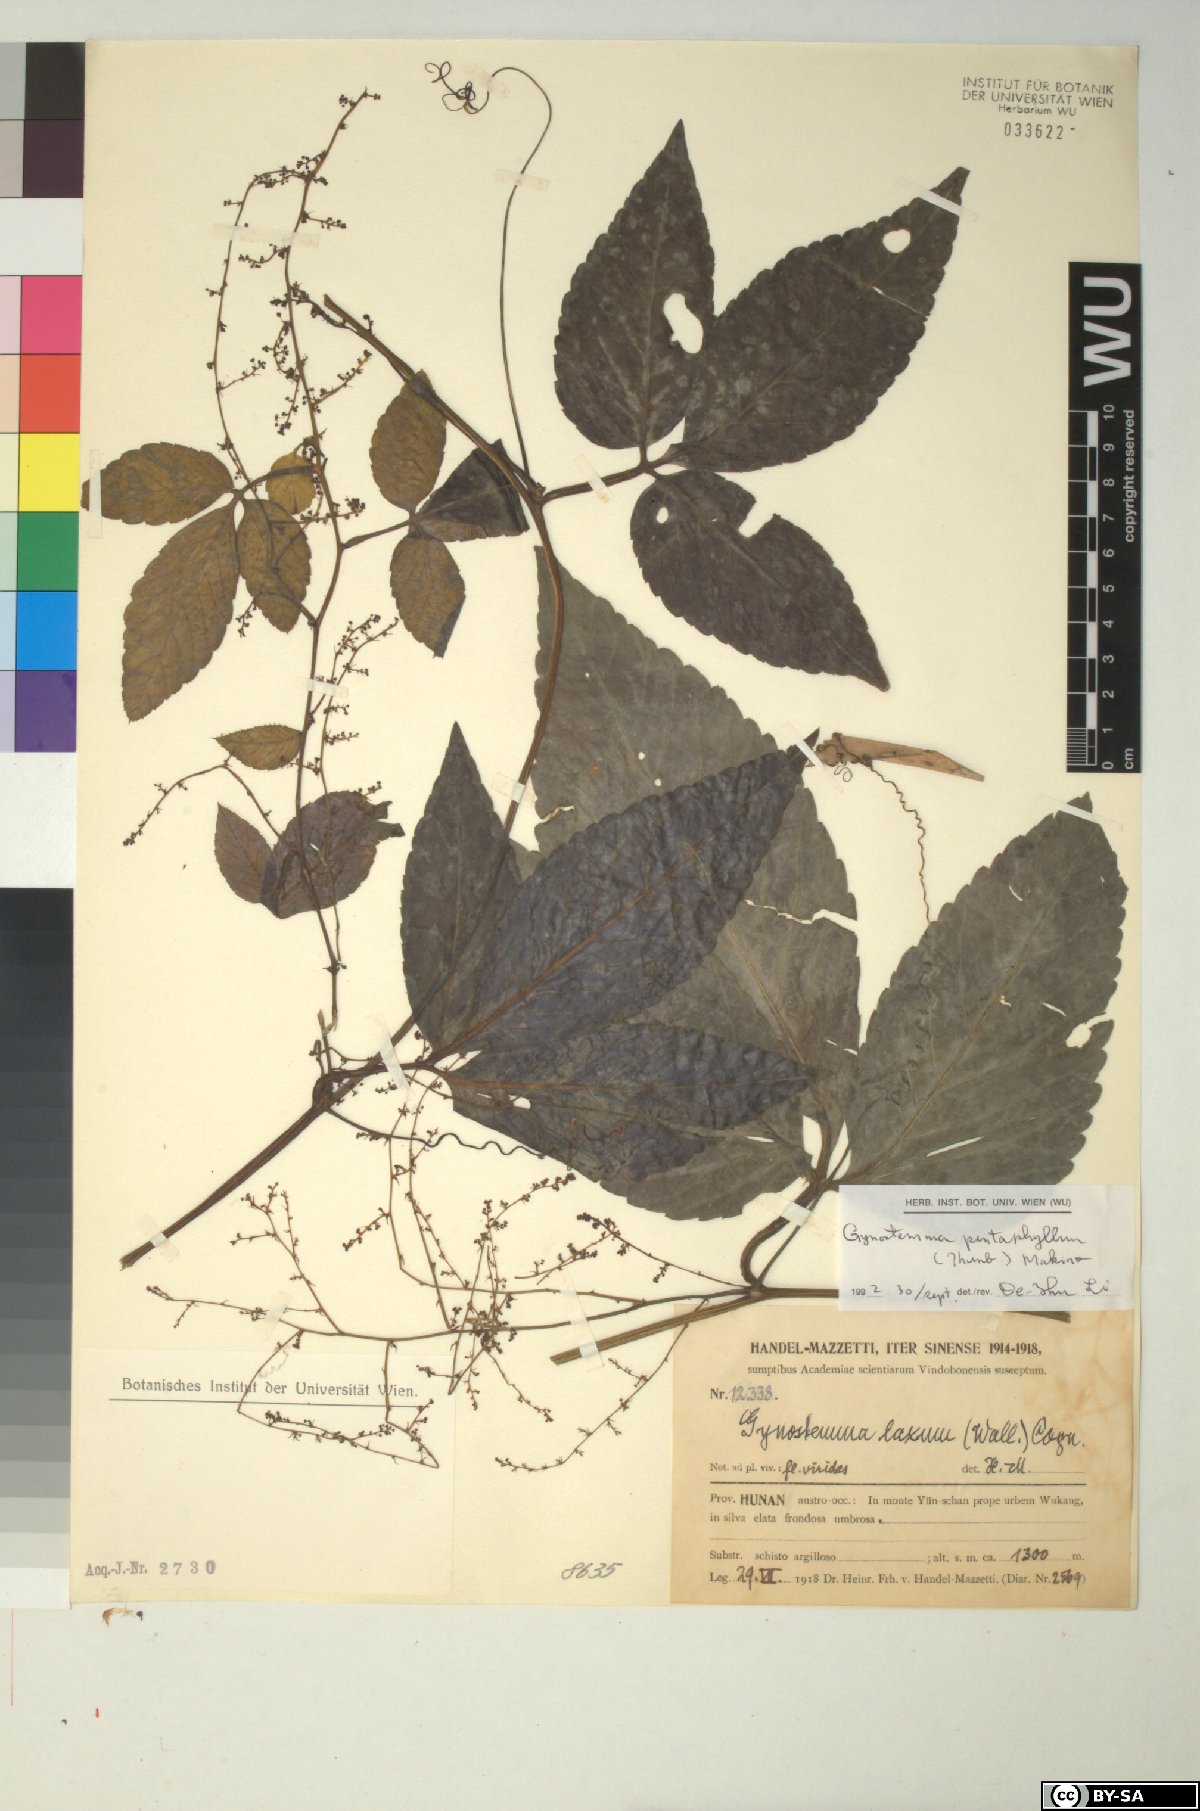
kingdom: Plantae
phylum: Tracheophyta
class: Magnoliopsida
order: Cucurbitales
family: Cucurbitaceae
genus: Gynostemma
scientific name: Gynostemma pentaphyllum
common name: Gynostemma
